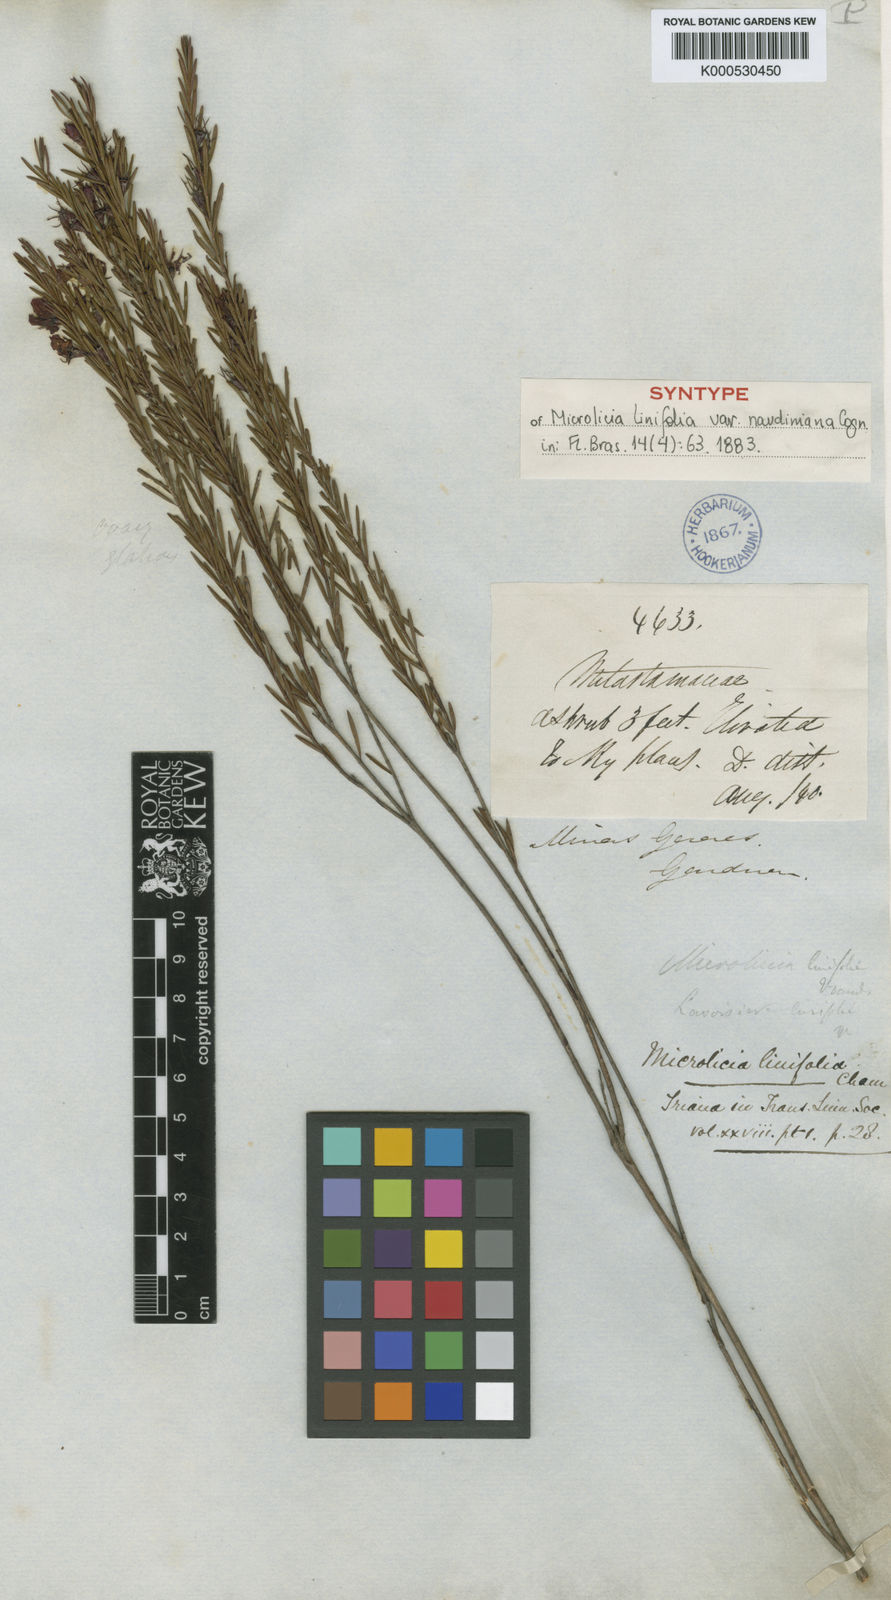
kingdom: Plantae
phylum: Tracheophyta
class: Magnoliopsida
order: Myrtales
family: Melastomataceae
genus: Microlicia
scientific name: Microlicia acerosa
